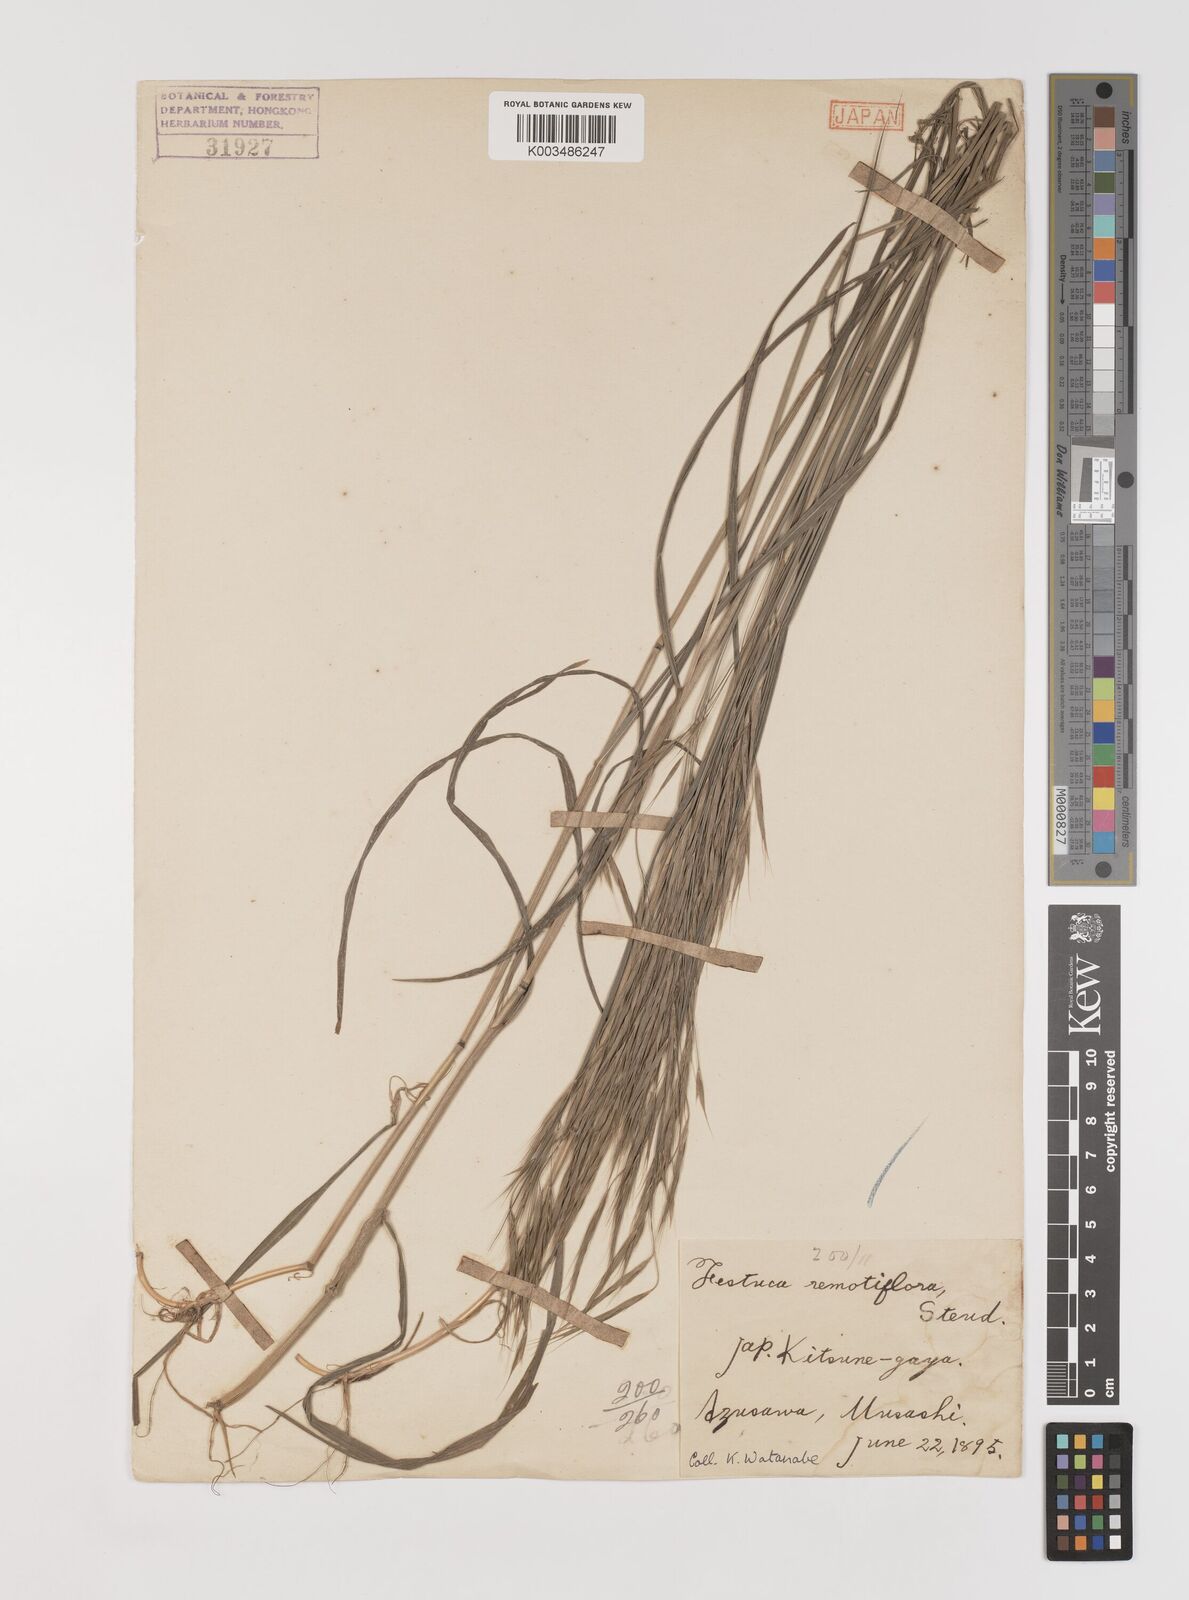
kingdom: Plantae
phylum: Tracheophyta
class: Liliopsida
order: Poales
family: Poaceae
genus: Bromus
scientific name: Bromus remotiflorus
